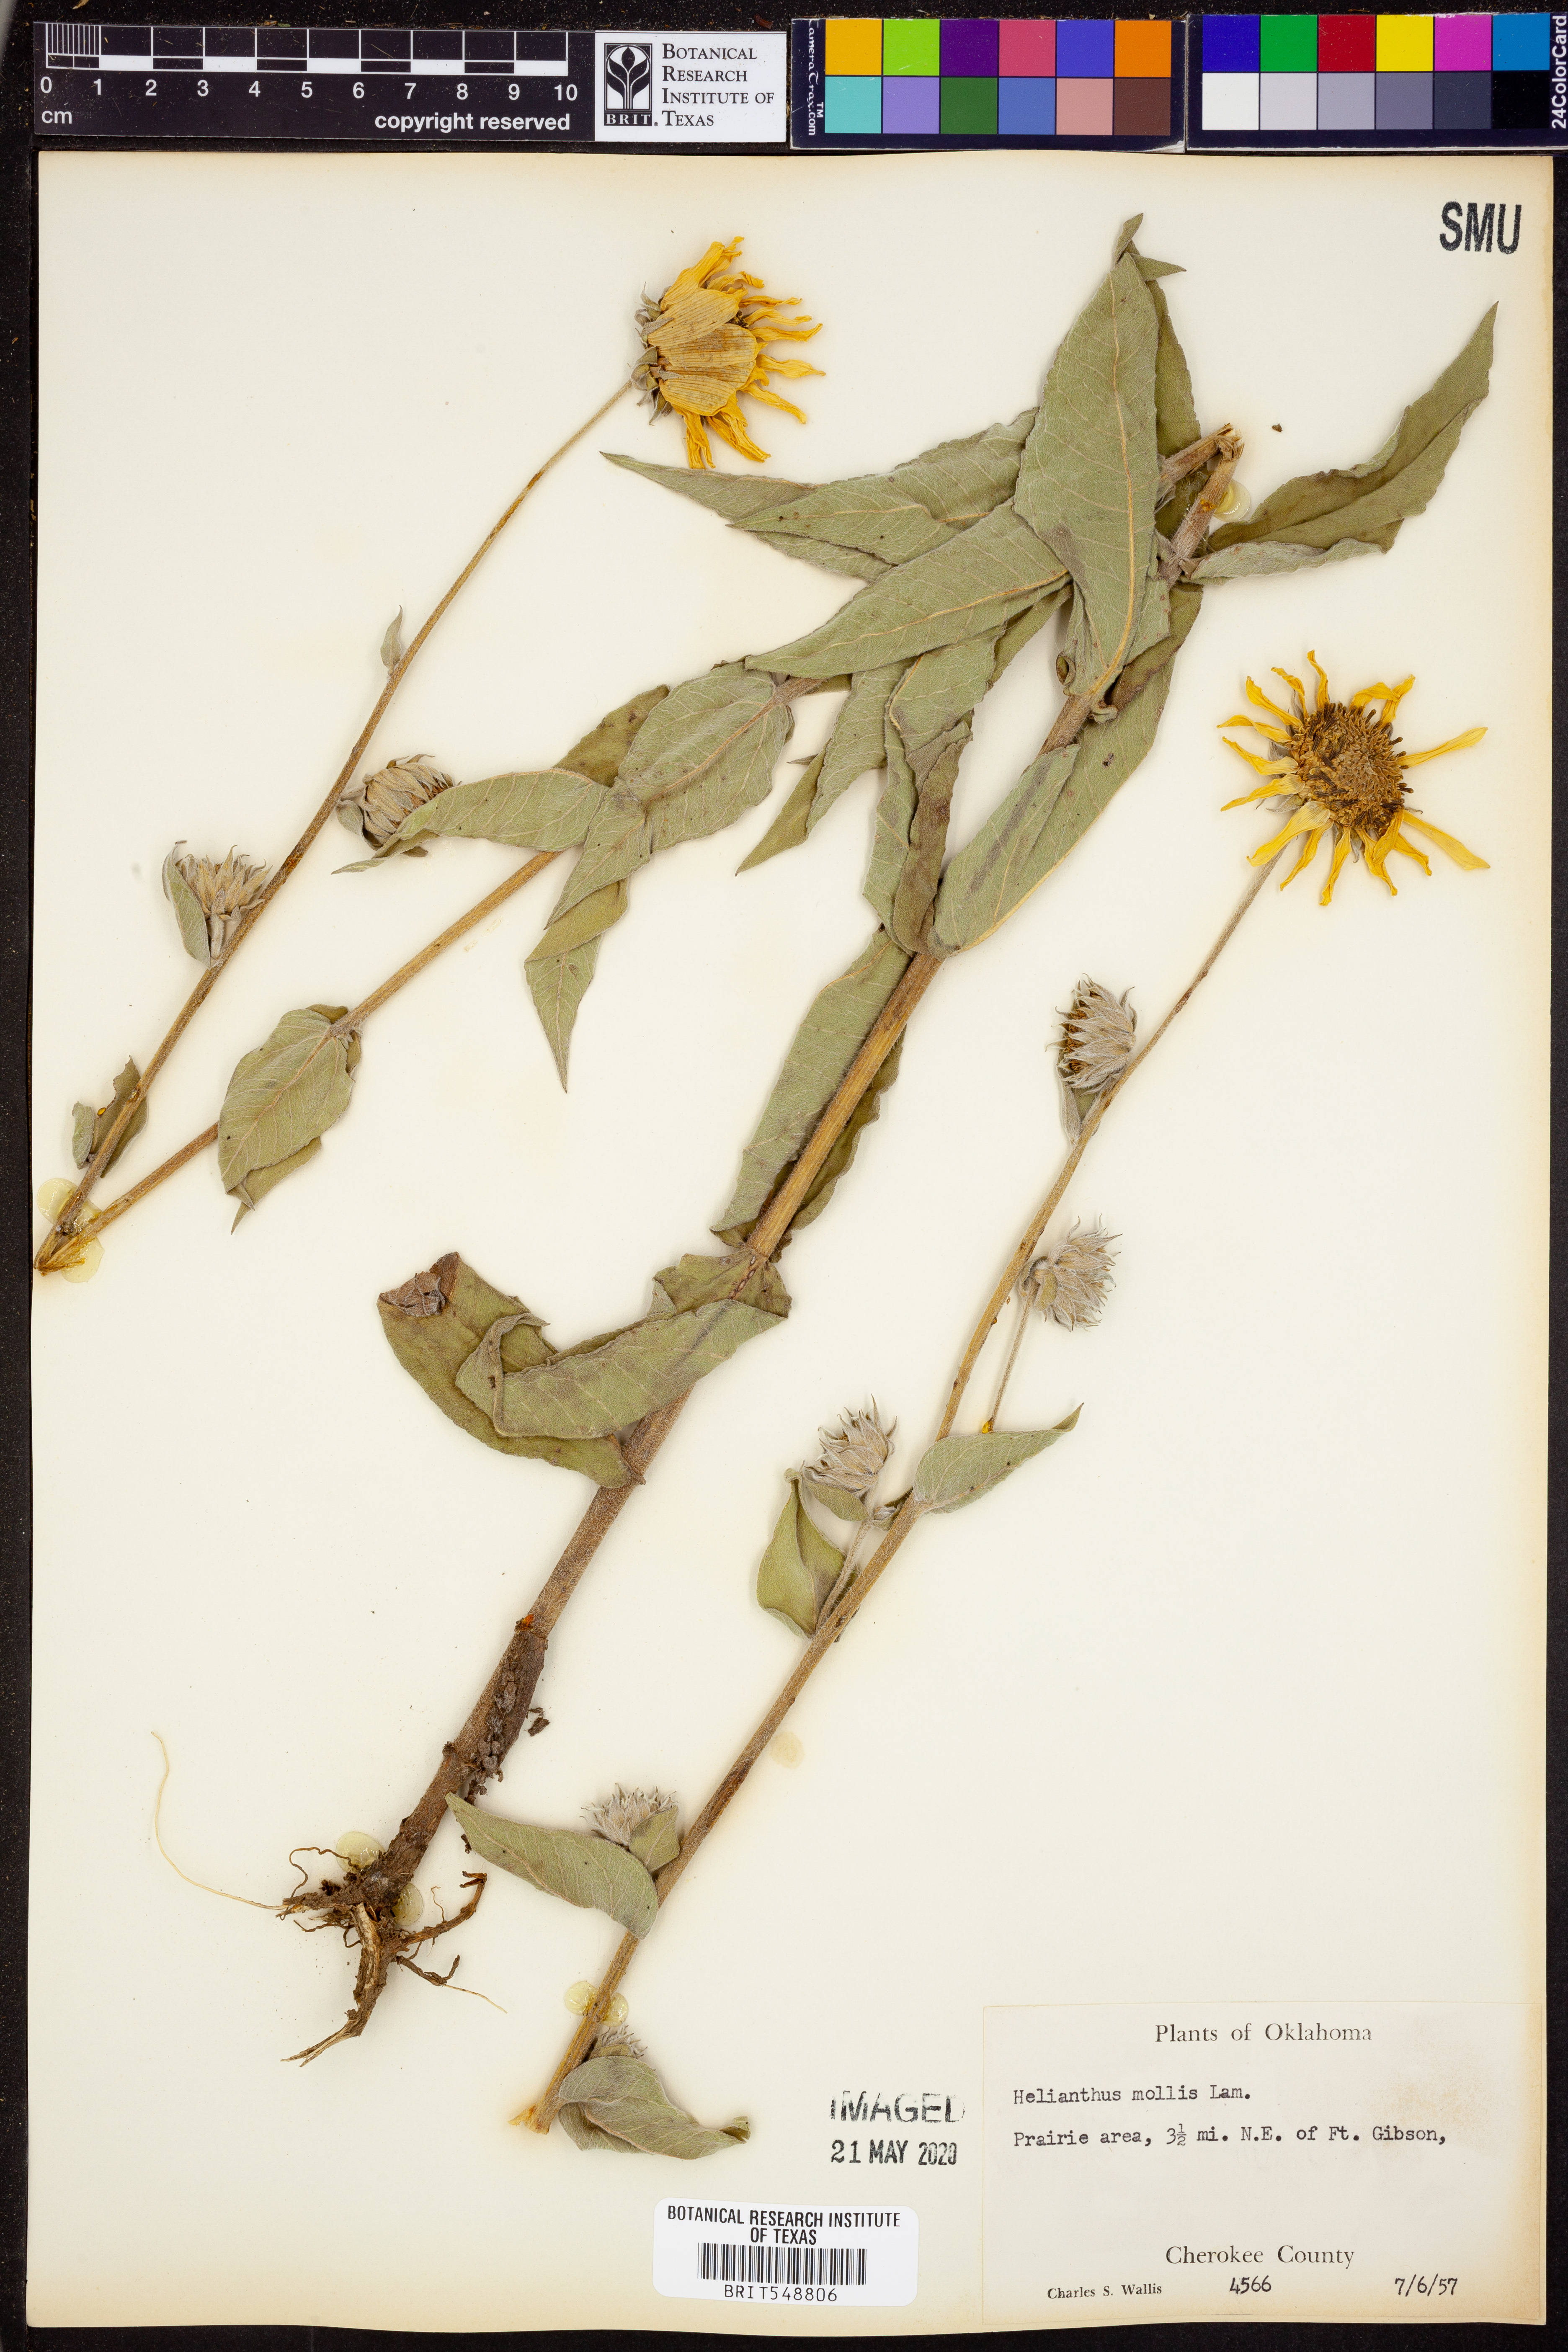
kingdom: Plantae
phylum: Tracheophyta
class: Magnoliopsida
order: Asterales
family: Asteraceae
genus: Helianthus
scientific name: Helianthus mollis
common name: Ashy sunflower
